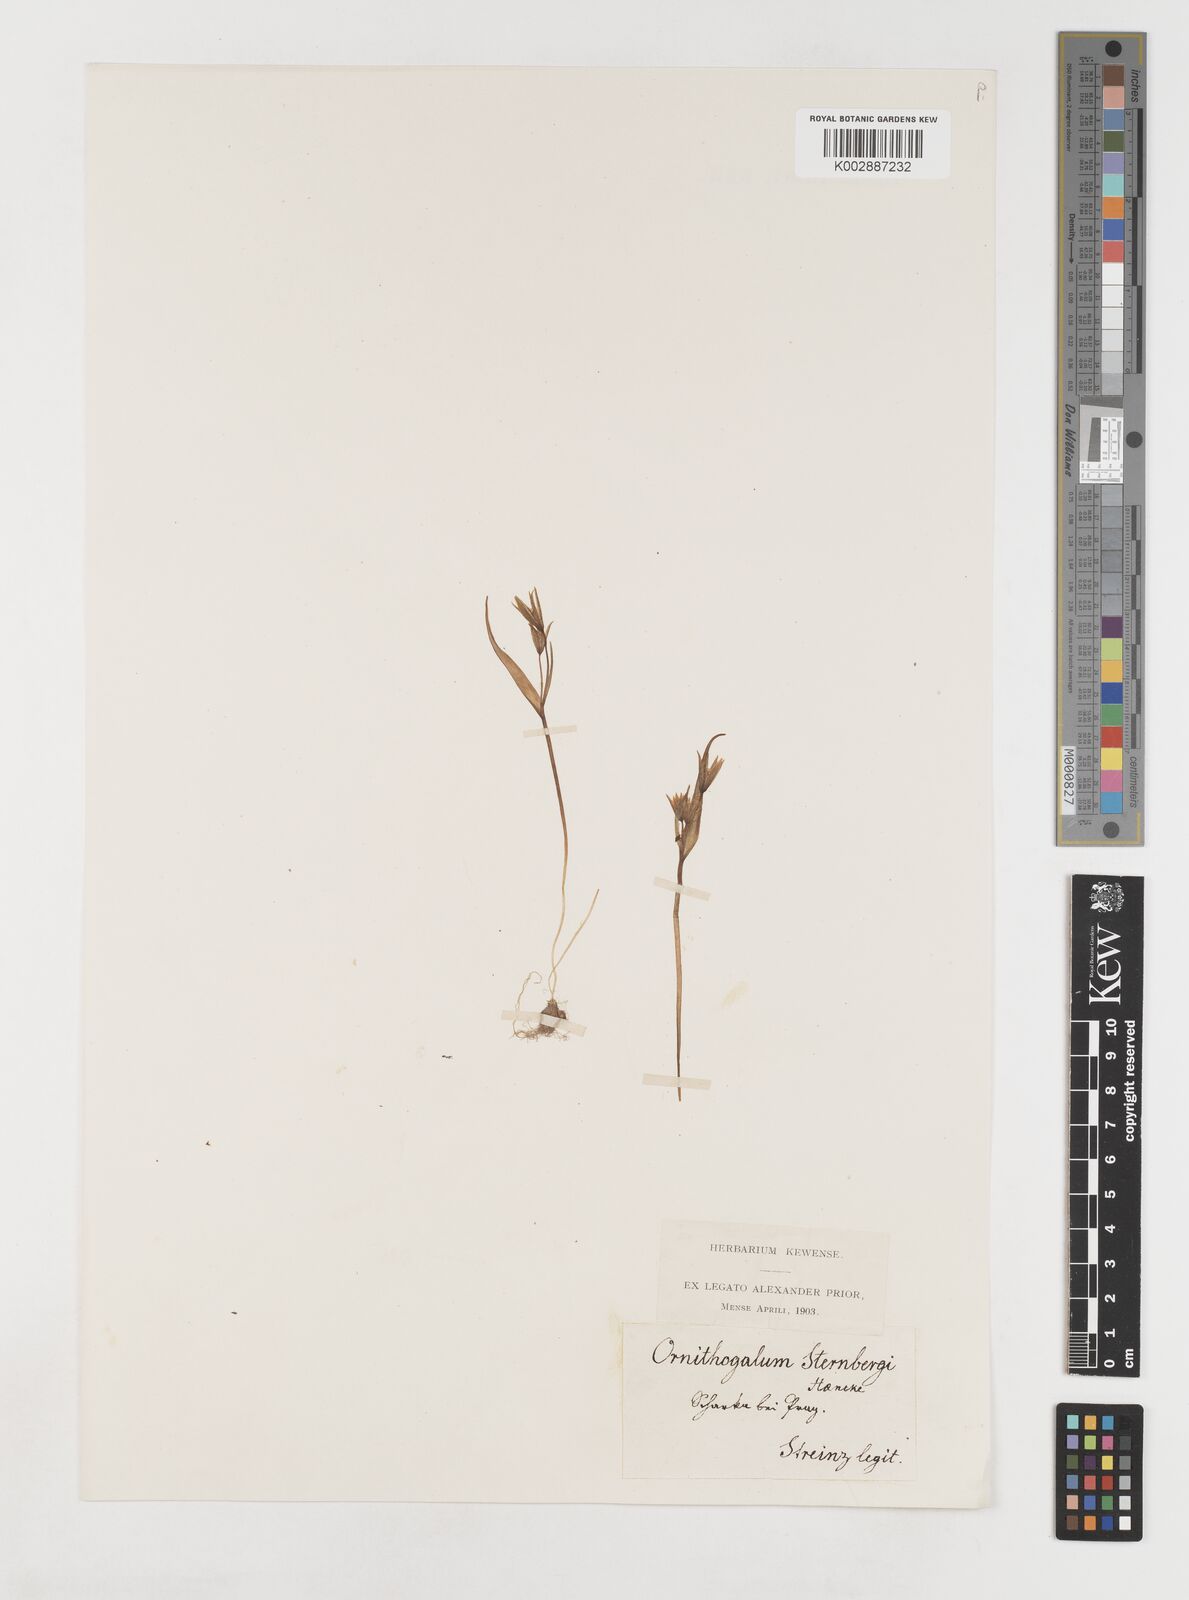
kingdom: Plantae
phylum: Tracheophyta
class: Liliopsida
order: Liliales
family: Liliaceae
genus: Gagea
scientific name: Gagea minima
